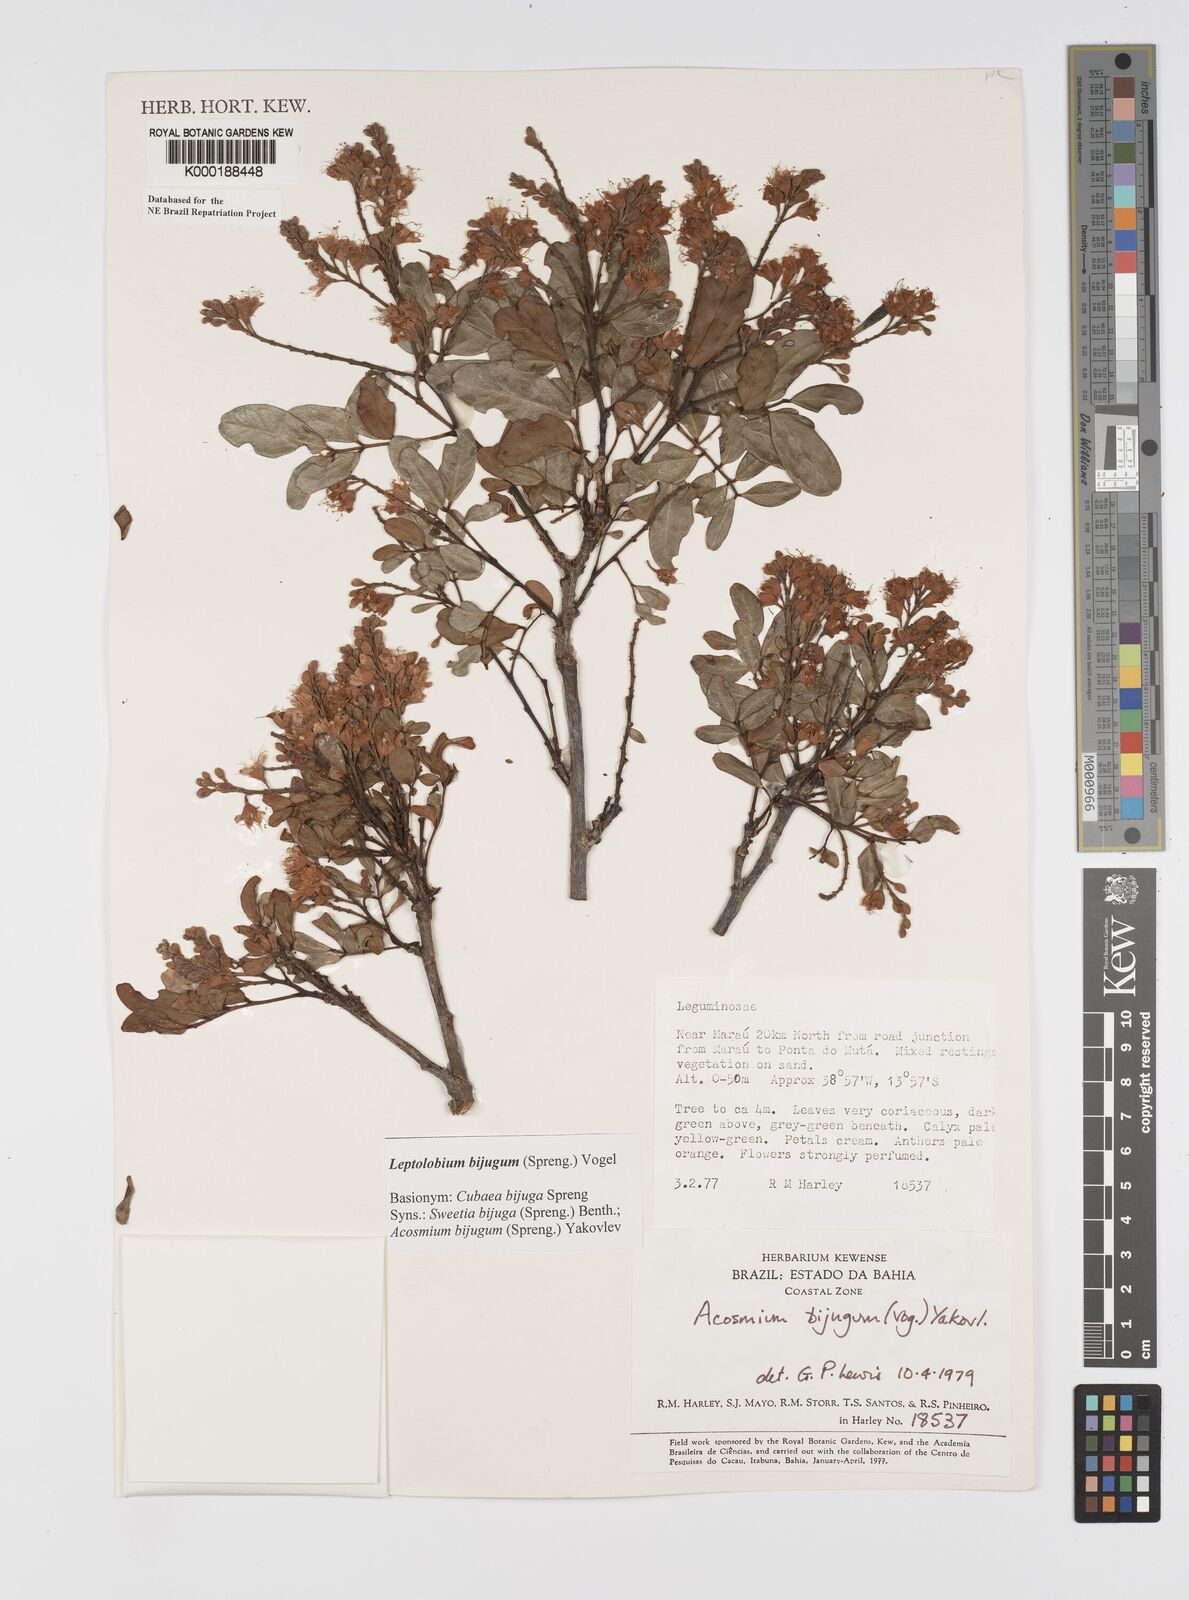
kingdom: Plantae
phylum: Tracheophyta
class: Magnoliopsida
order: Fabales
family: Fabaceae
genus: Leptolobium
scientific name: Leptolobium bijugum
